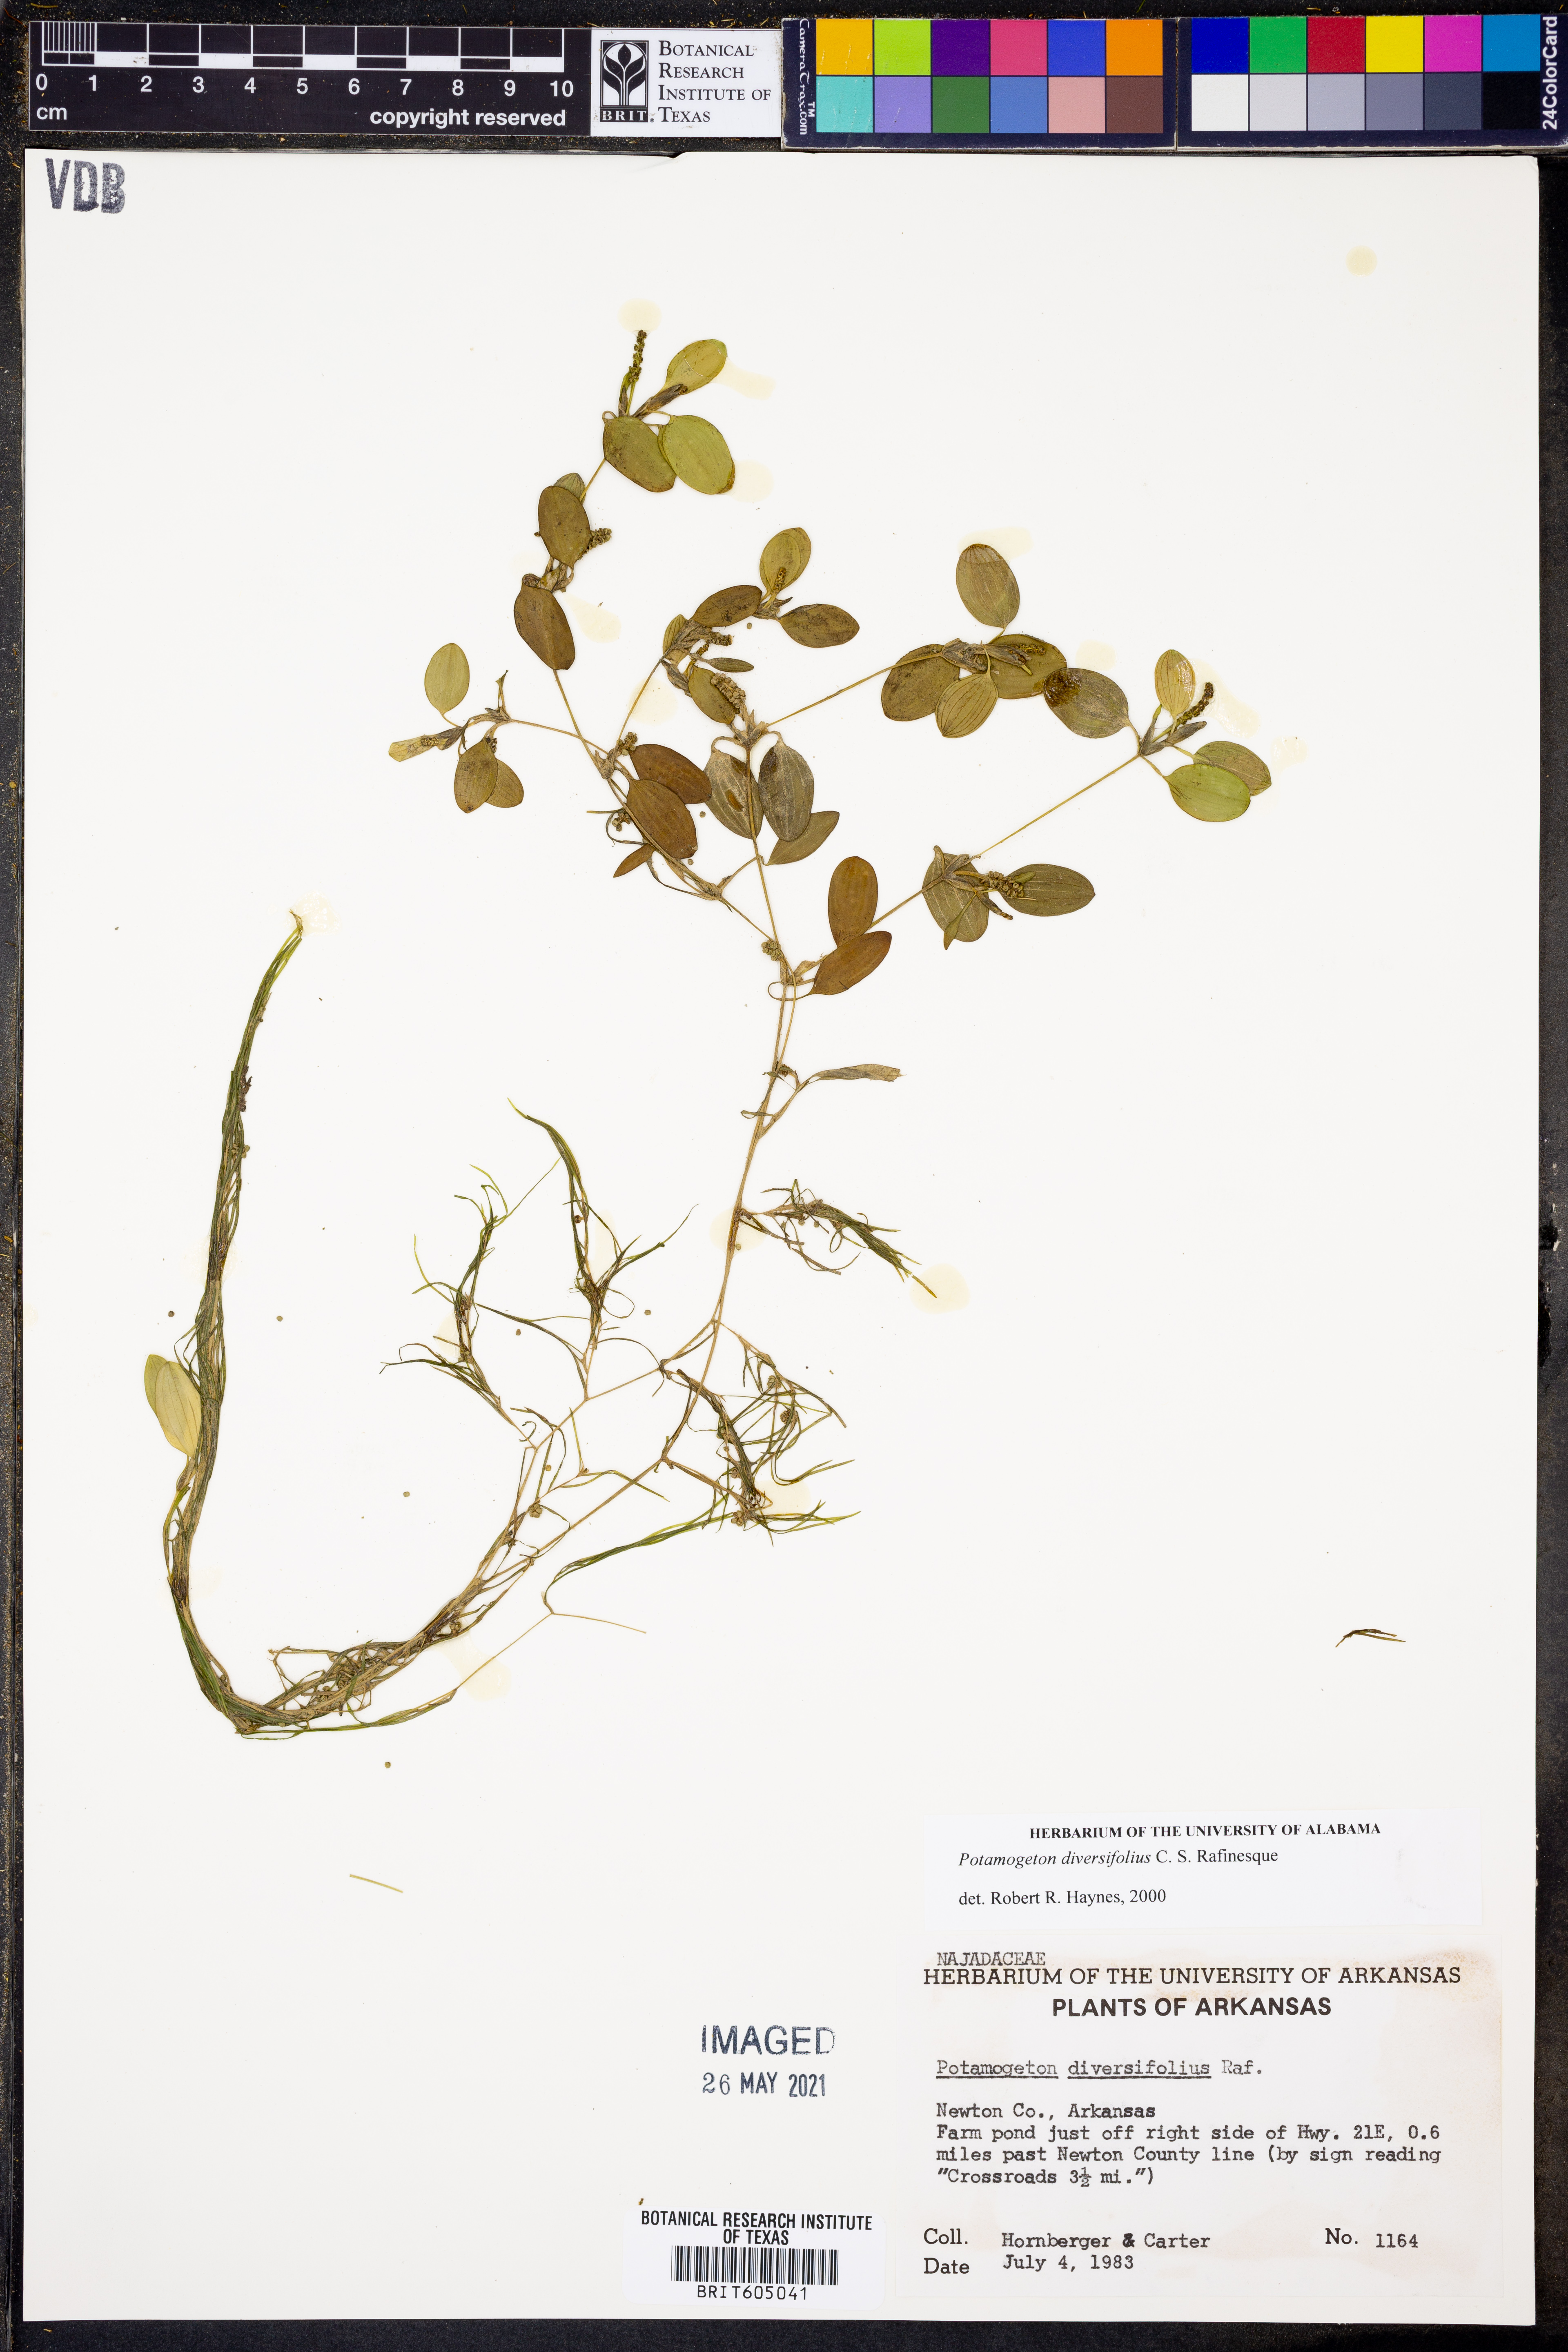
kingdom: Plantae
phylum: Tracheophyta
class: Liliopsida
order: Alismatales
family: Potamogetonaceae
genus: Potamogeton
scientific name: Potamogeton diversifolius
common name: Water-thread pondweed
